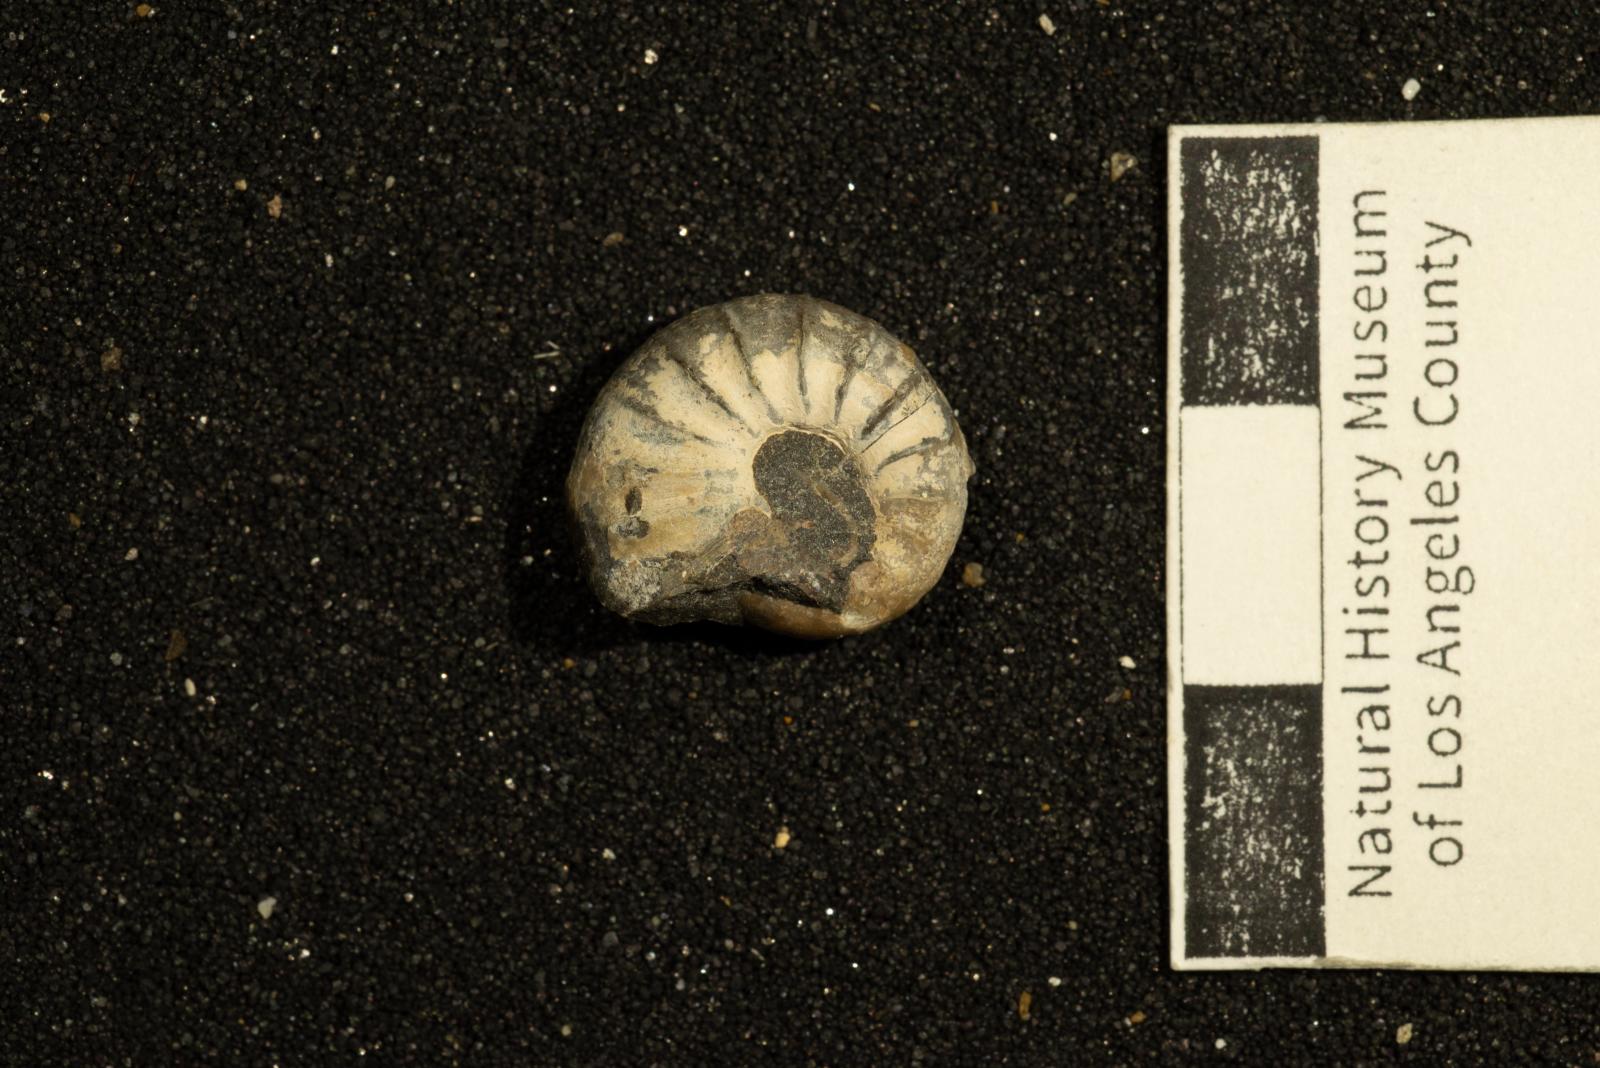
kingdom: Animalia
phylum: Mollusca
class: Cephalopoda
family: Scaphitidae
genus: Yezoites
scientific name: Yezoites
